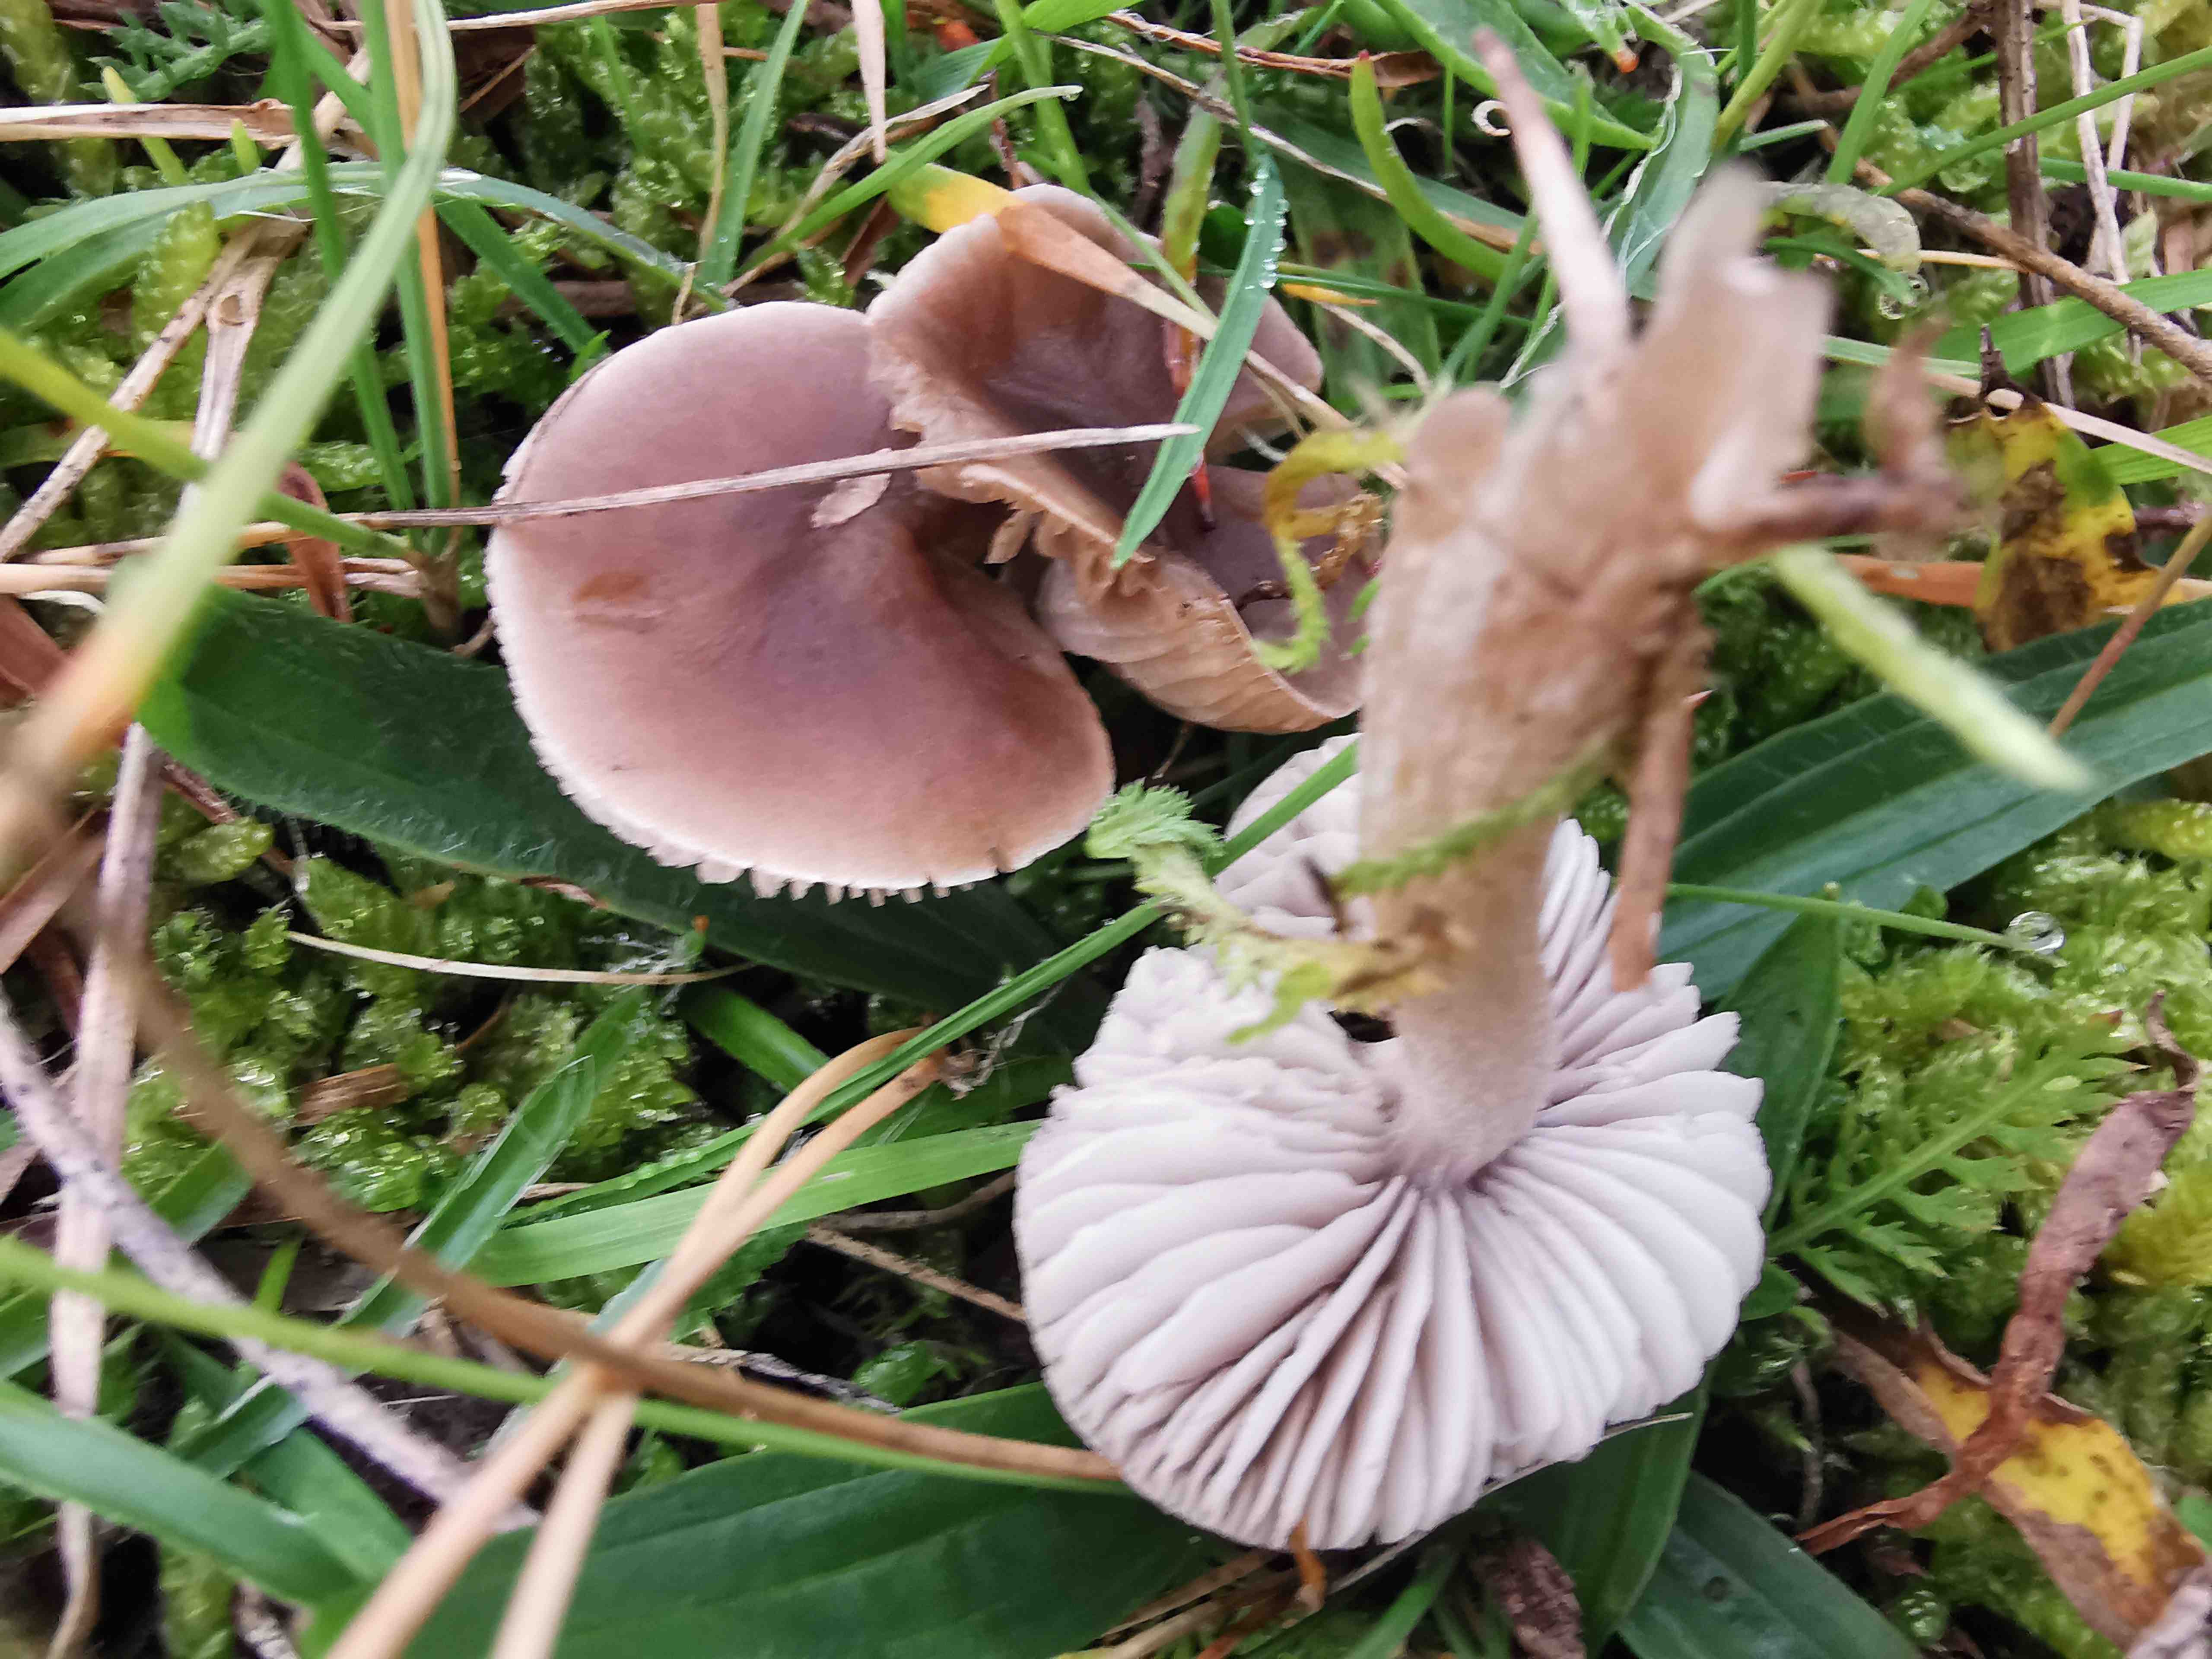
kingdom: Fungi
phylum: Basidiomycota
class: Agaricomycetes
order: Agaricales
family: Tricholomataceae
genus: Dermoloma
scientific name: Dermoloma cuneifolium
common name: eng-nonnehat
